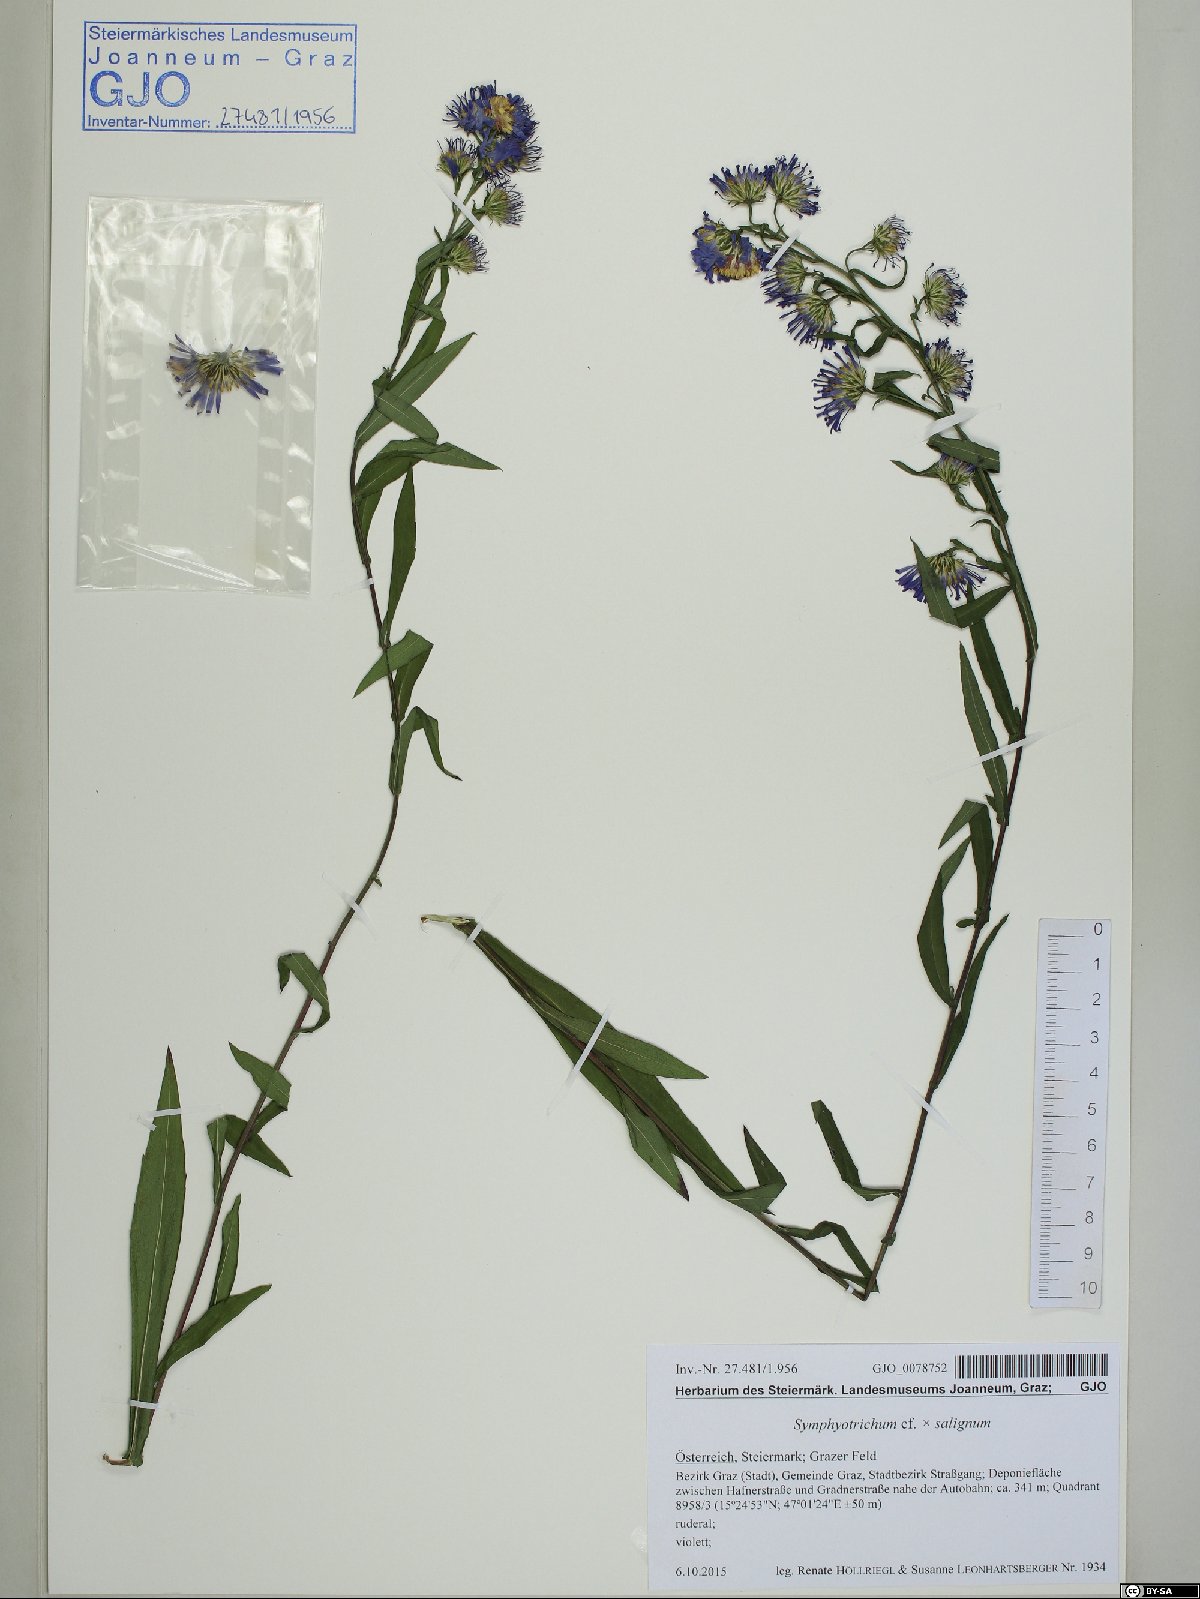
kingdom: Plantae
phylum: Tracheophyta
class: Magnoliopsida
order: Asterales
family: Asteraceae
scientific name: Asteraceae
